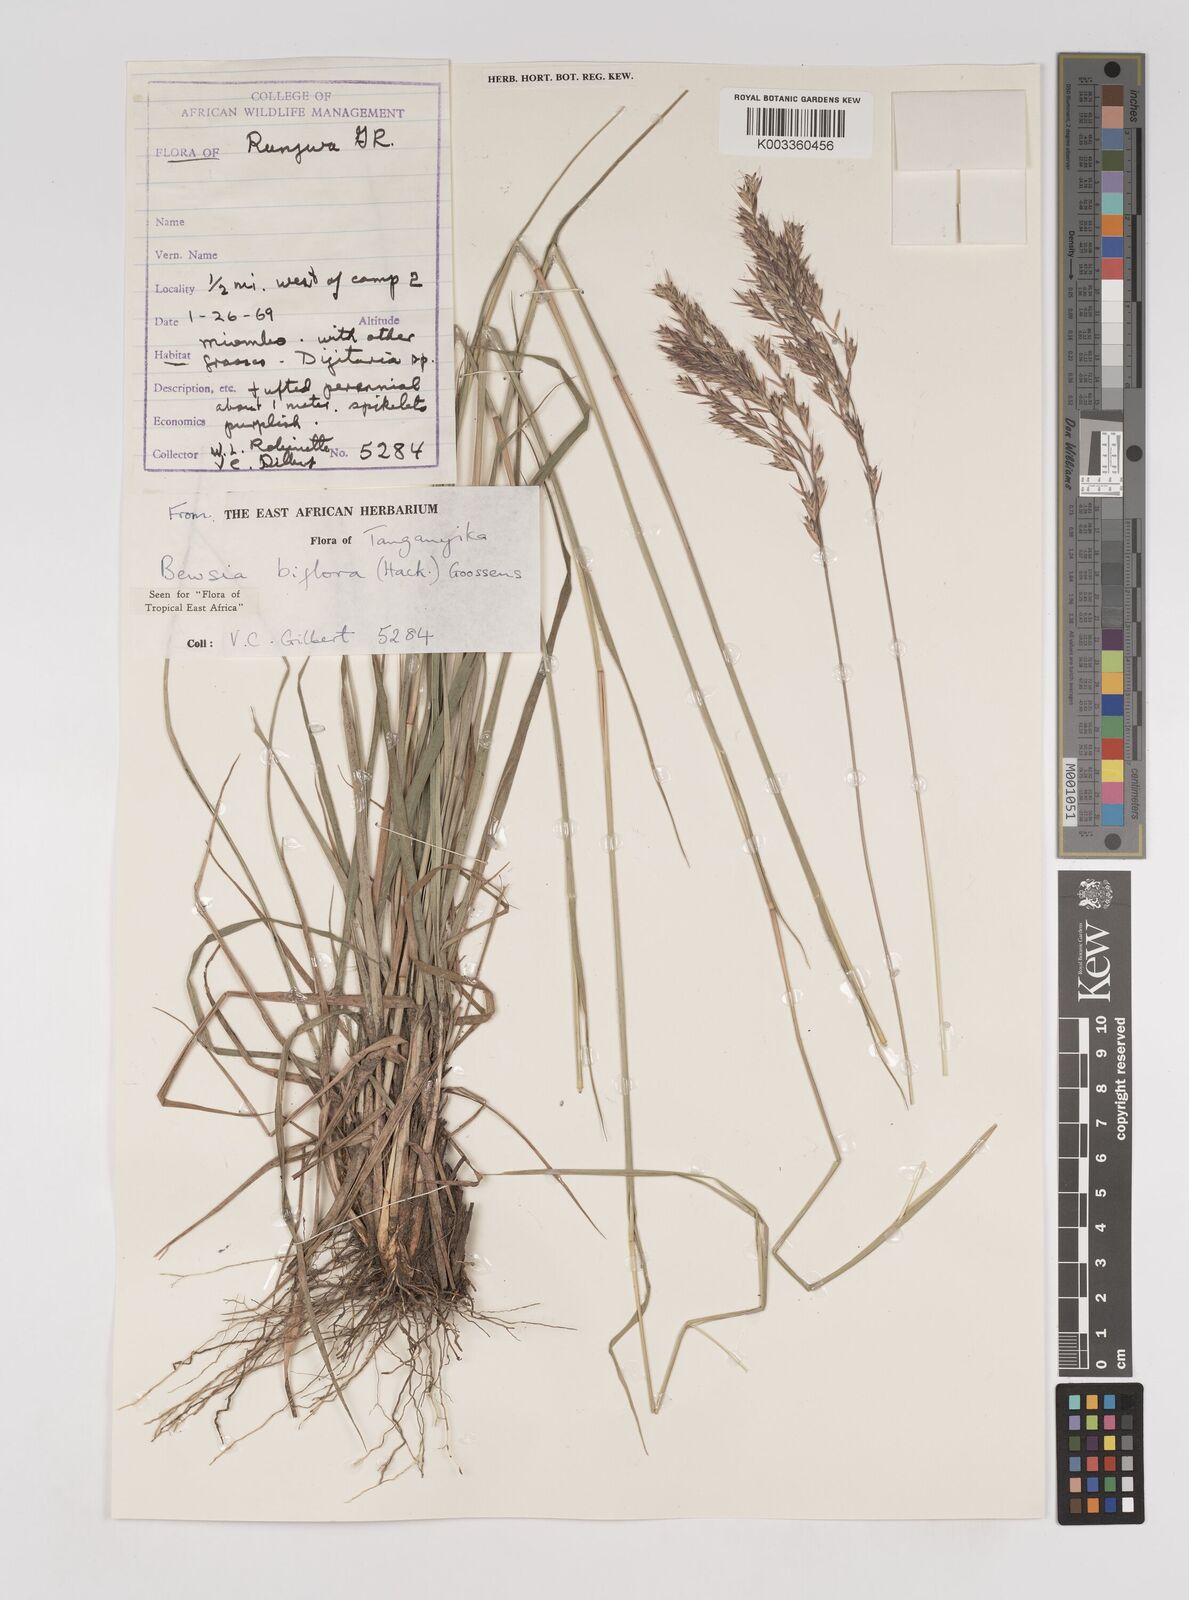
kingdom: Plantae
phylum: Tracheophyta
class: Liliopsida
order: Poales
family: Poaceae
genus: Bewsia
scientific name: Bewsia biflora
